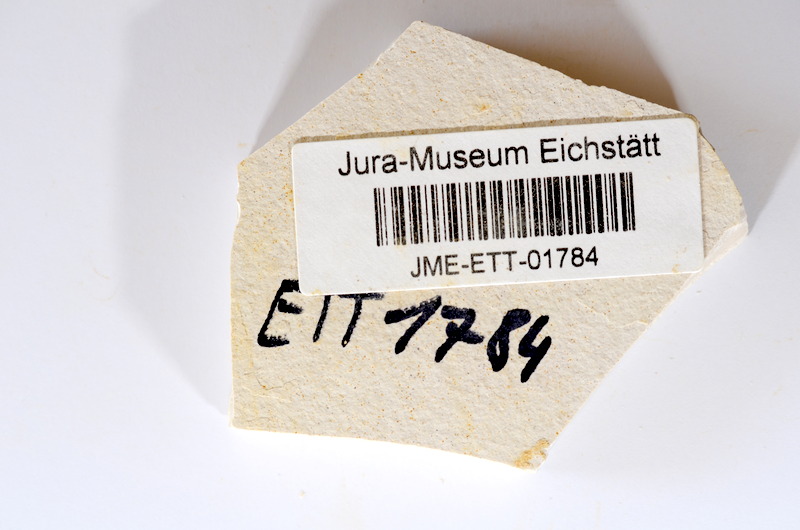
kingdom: Animalia
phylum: Chordata
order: Salmoniformes
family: Orthogonikleithridae
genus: Orthogonikleithrus
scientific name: Orthogonikleithrus hoelli
